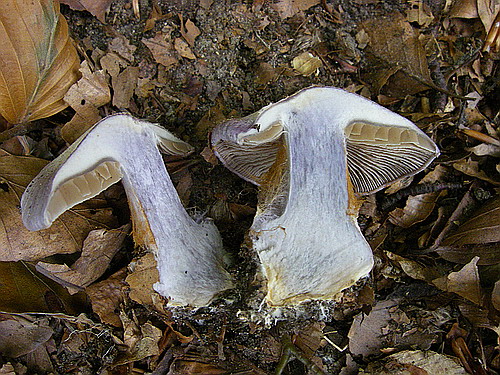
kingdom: Fungi
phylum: Basidiomycota
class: Agaricomycetes
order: Agaricales
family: Cortinariaceae
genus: Cortinarius
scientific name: Cortinarius caerulescens
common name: blåkødet slørhat
